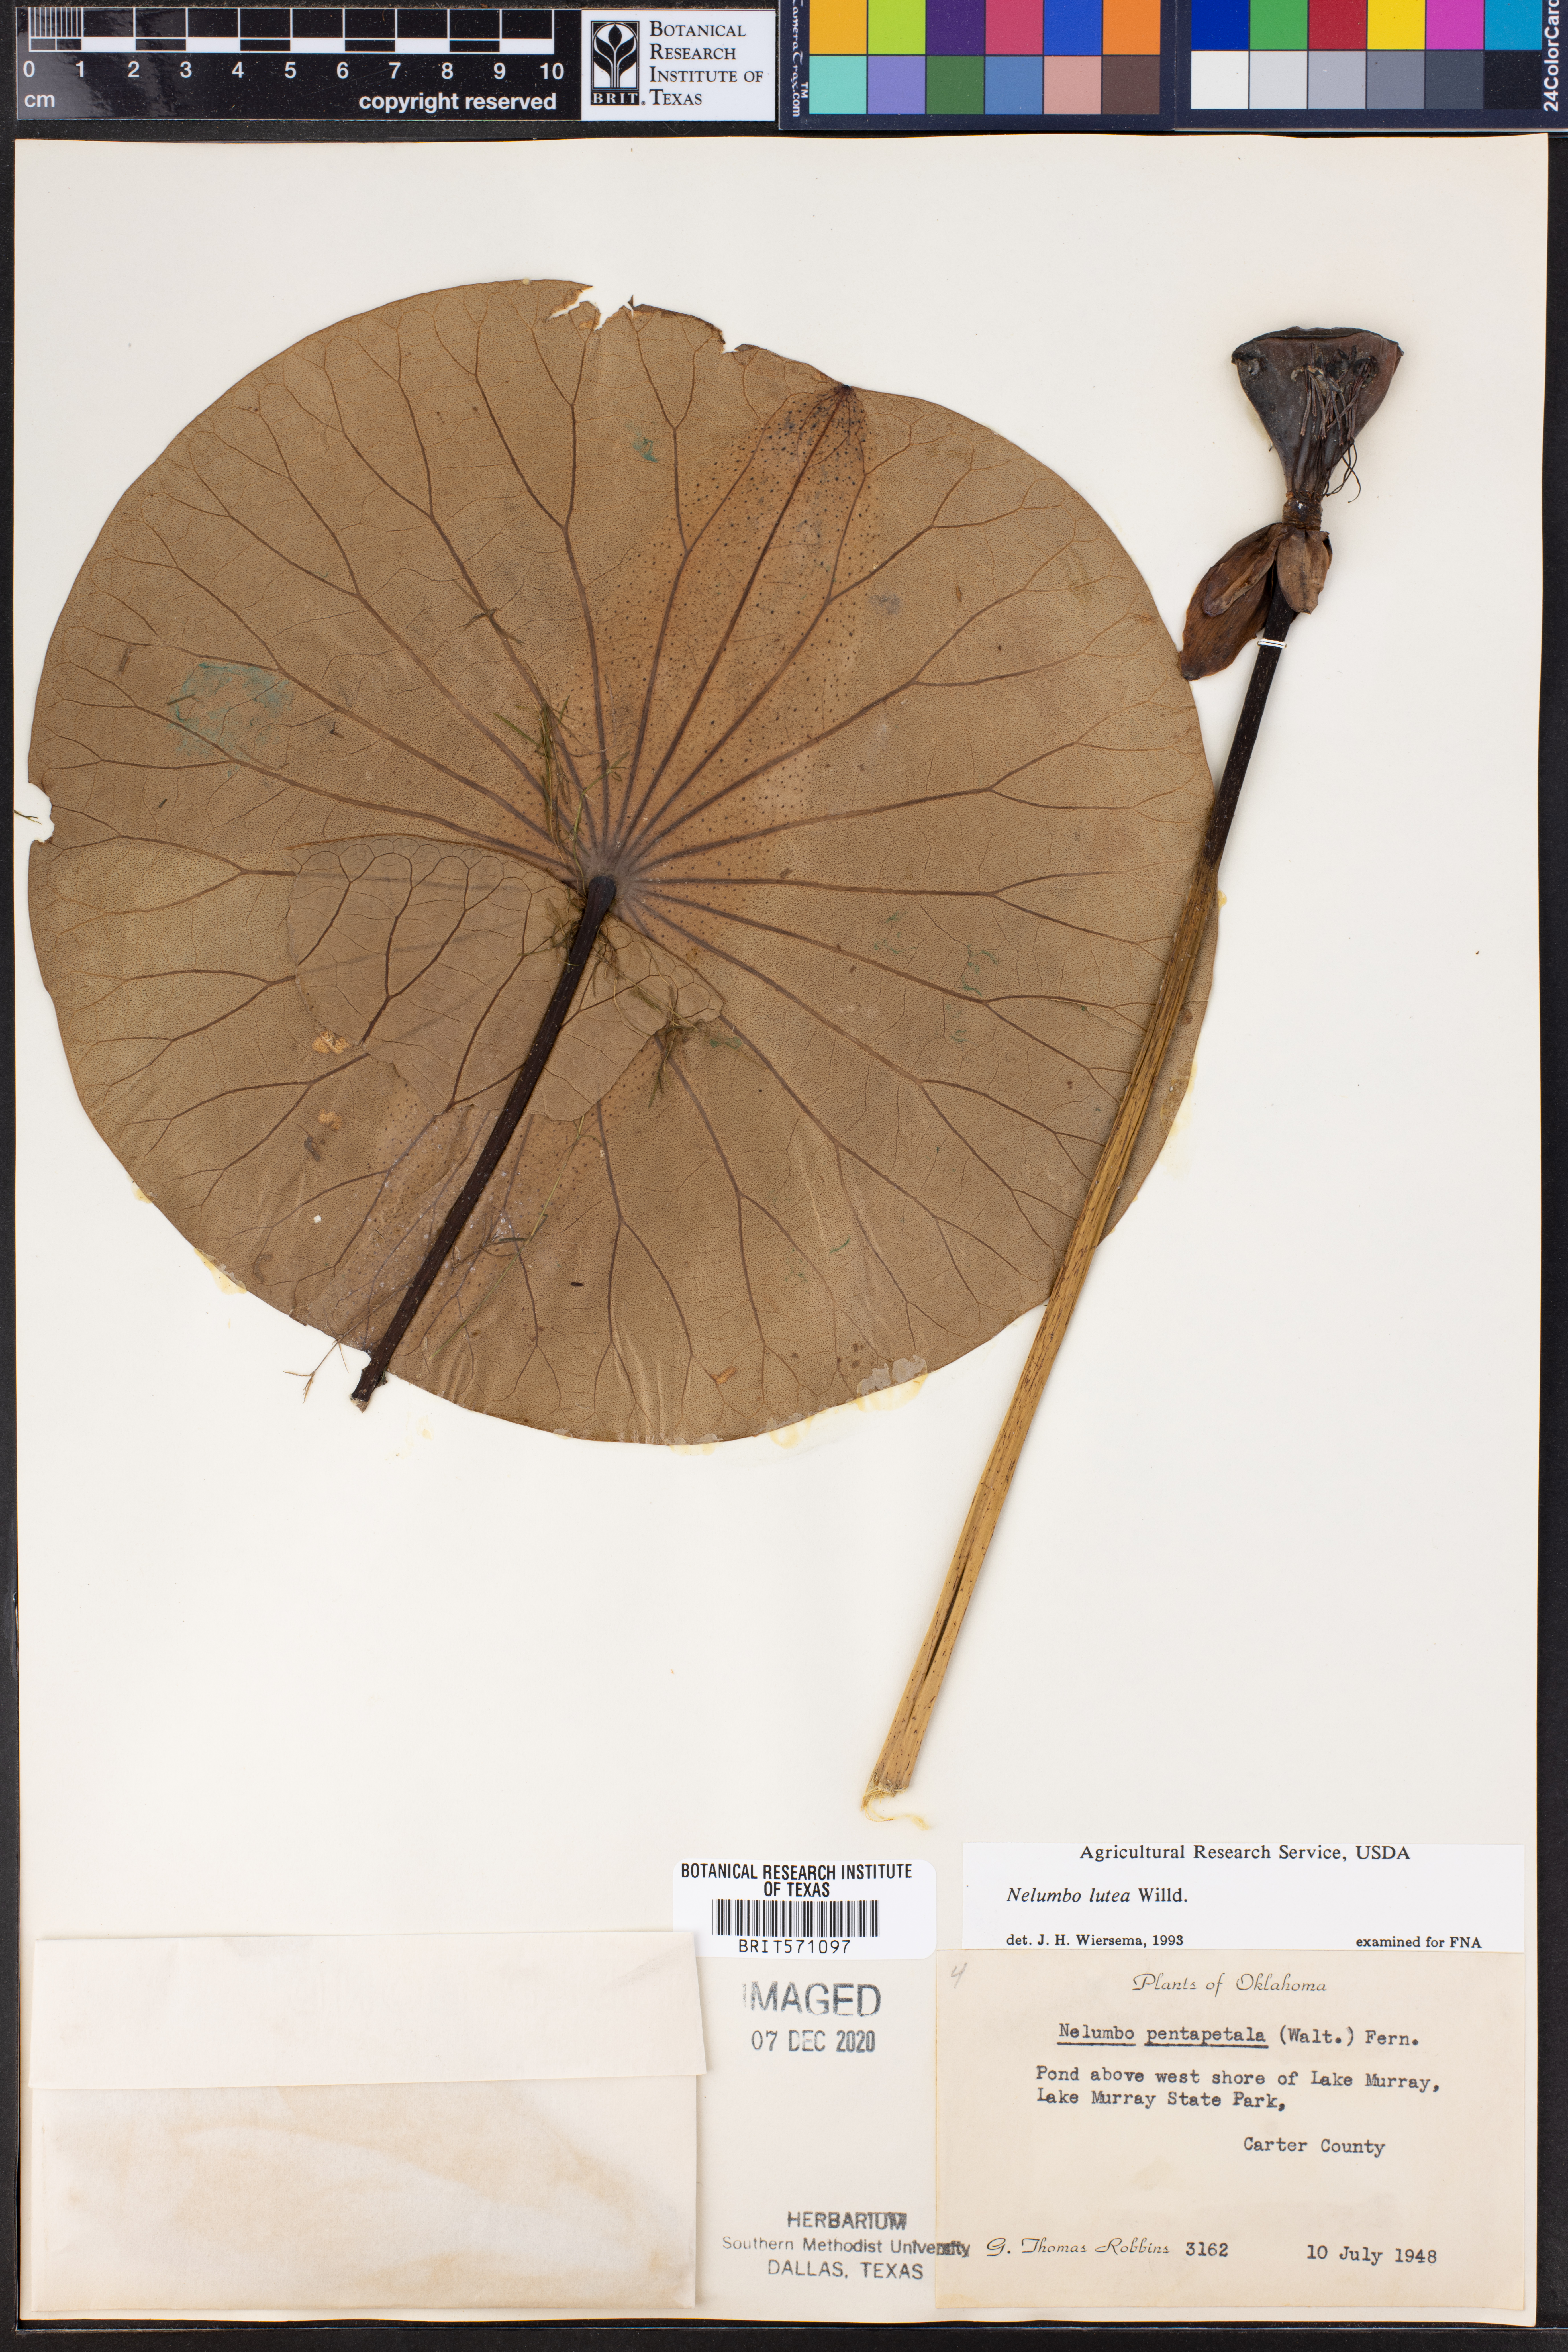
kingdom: Plantae
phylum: Tracheophyta
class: Magnoliopsida
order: Proteales
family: Nelumbonaceae
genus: Nelumbo
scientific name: Nelumbo lutea
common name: American lotus
